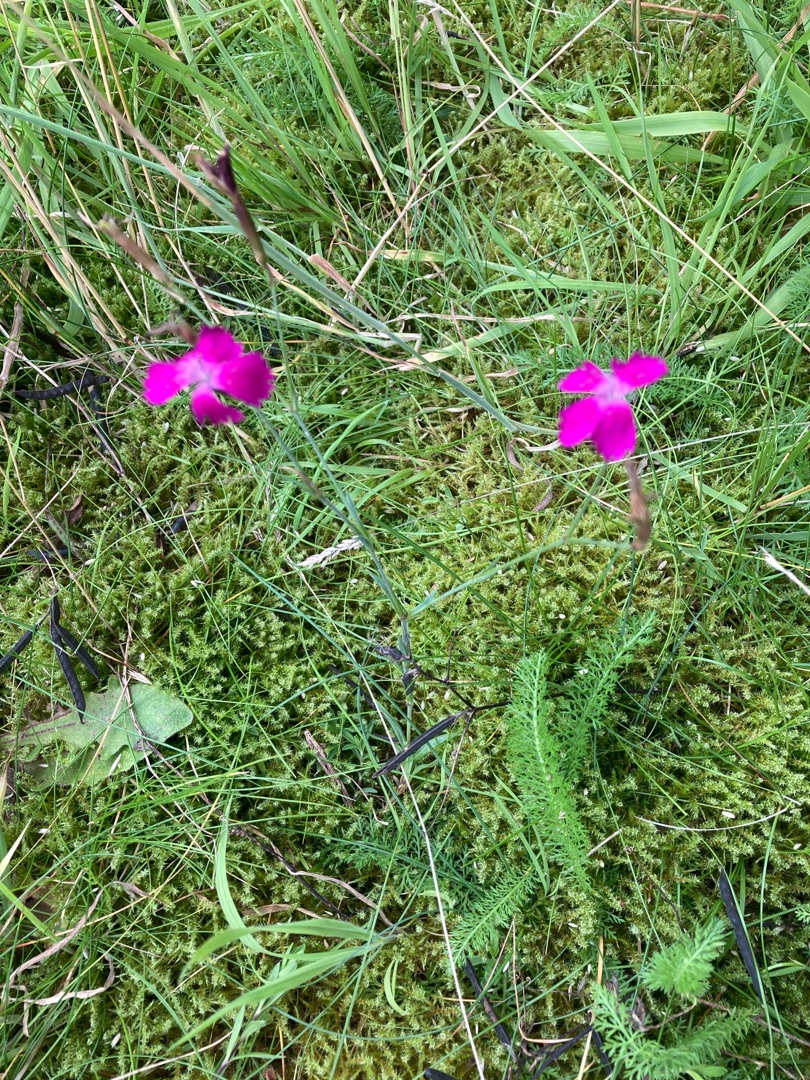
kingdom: Plantae
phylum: Tracheophyta
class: Magnoliopsida
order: Caryophyllales
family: Caryophyllaceae
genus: Dianthus
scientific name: Dianthus deltoides
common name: Bakke-nellike
